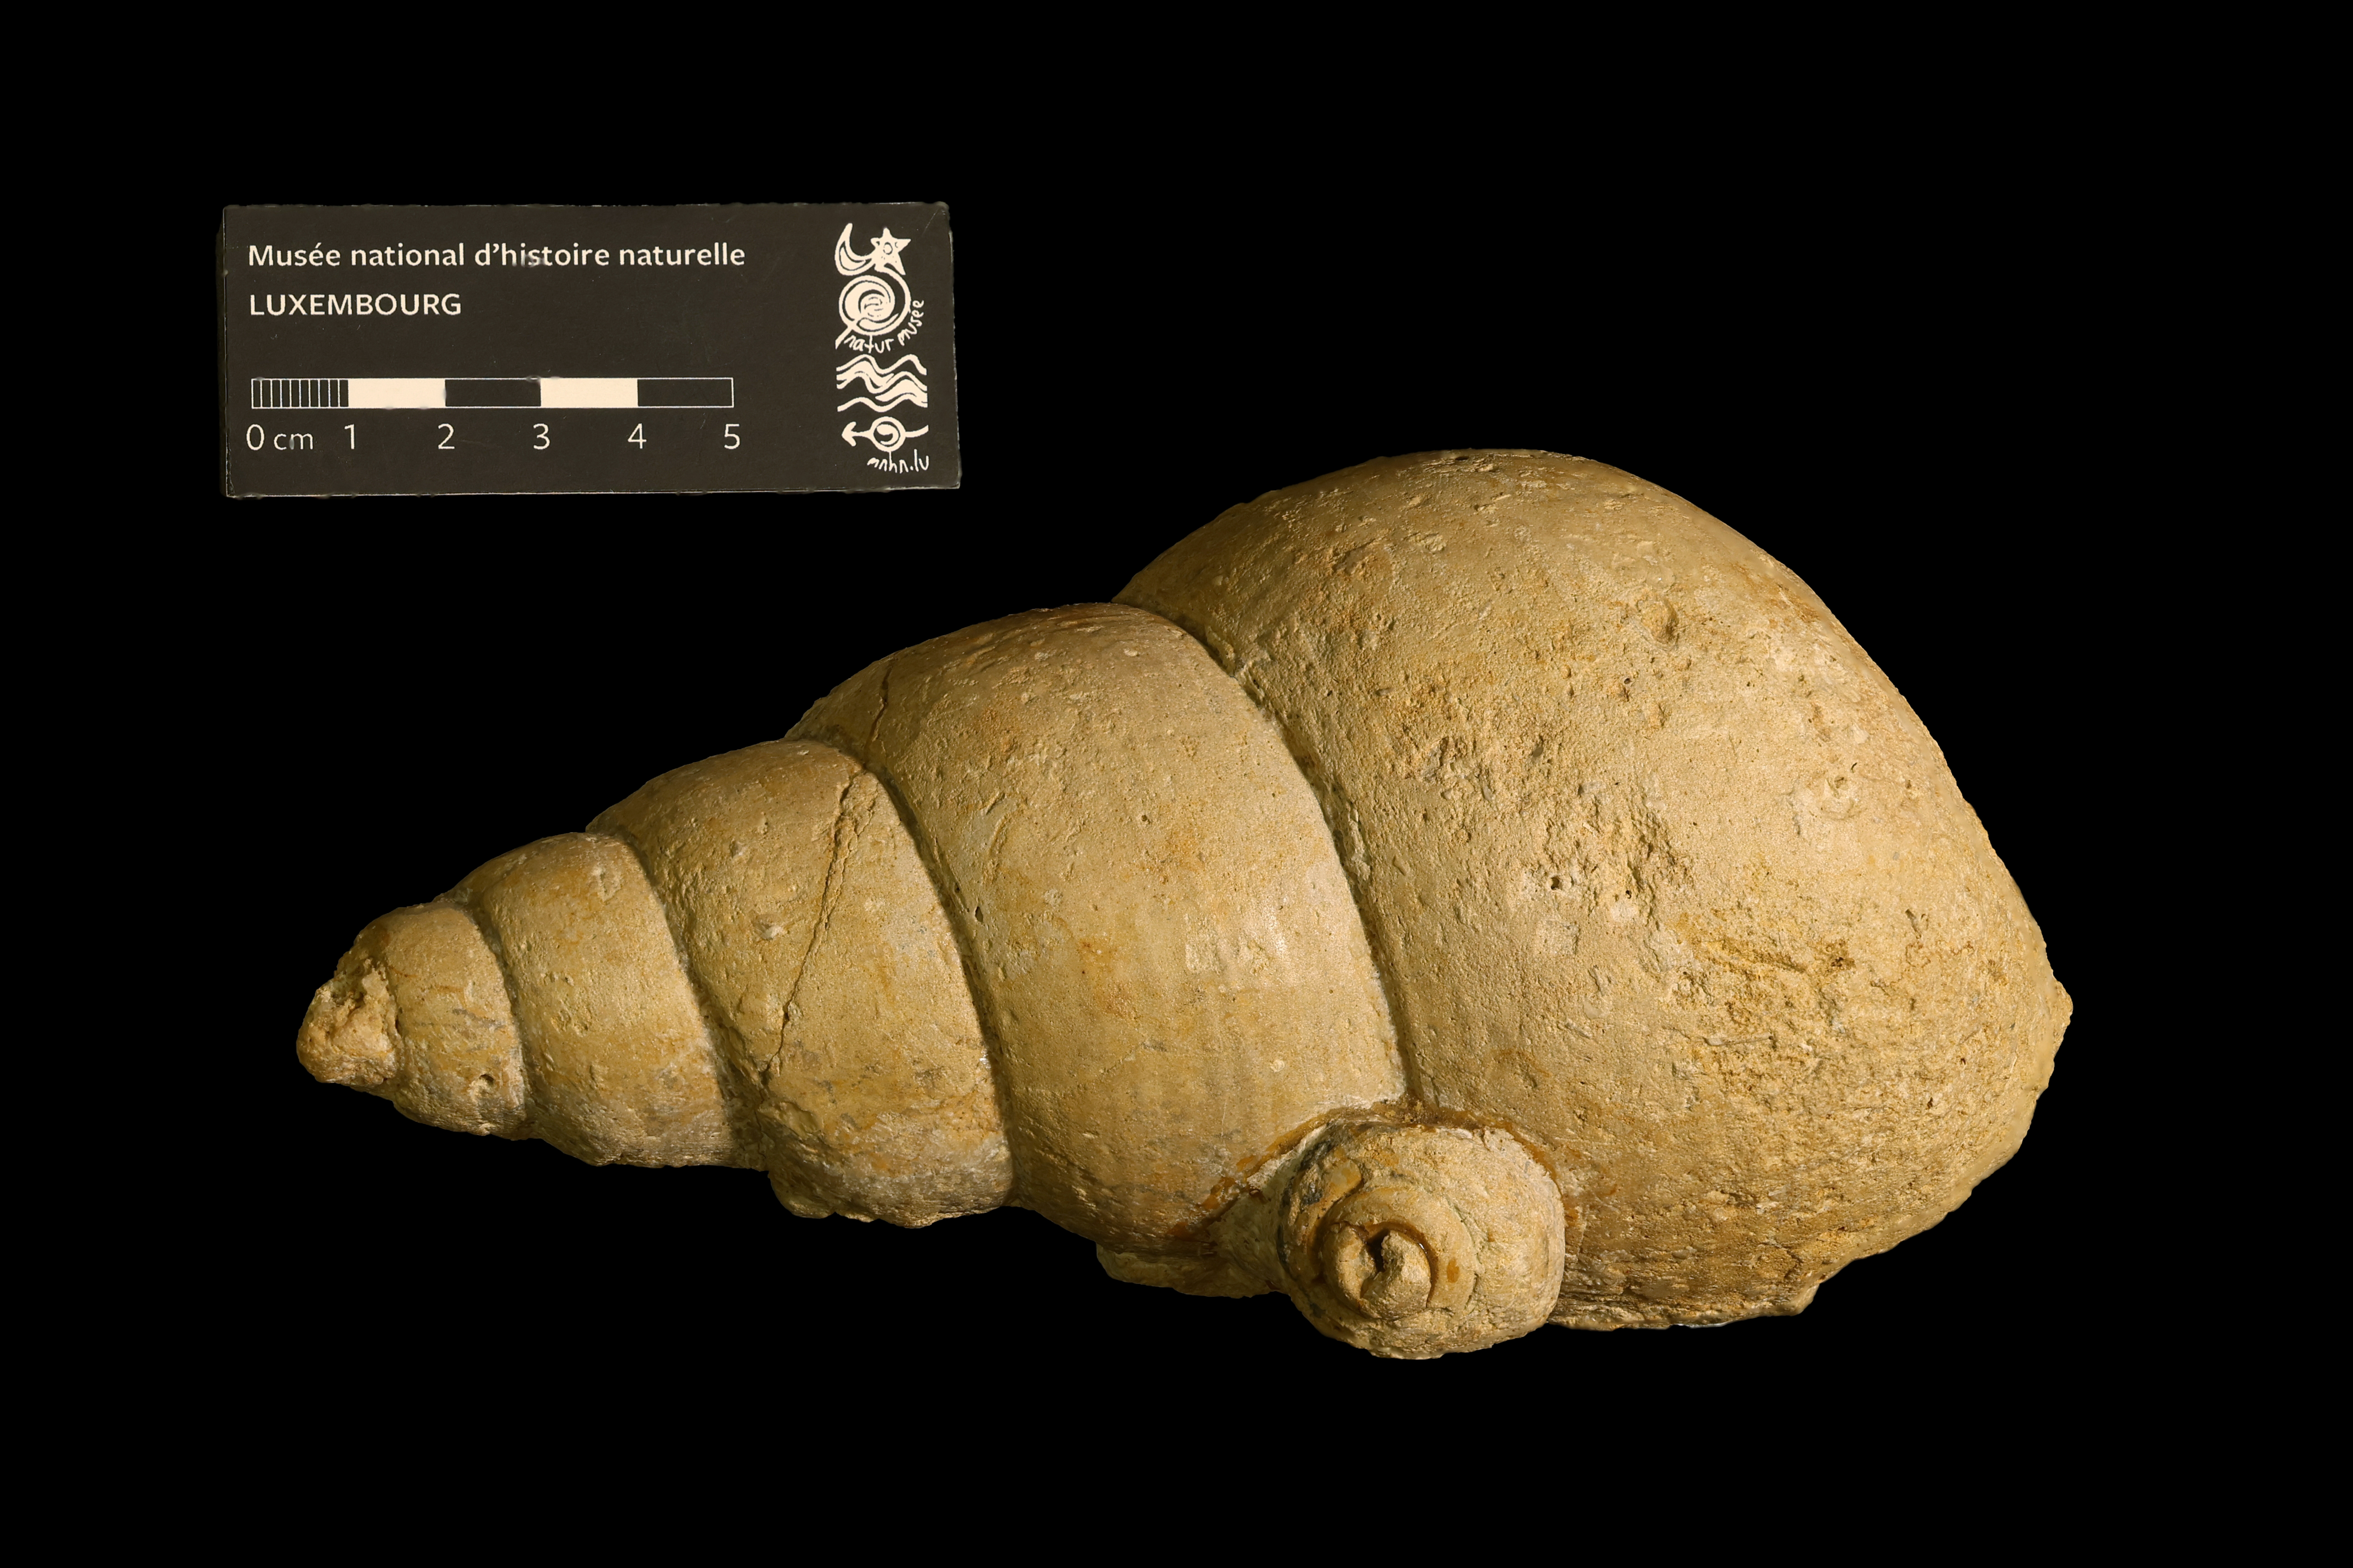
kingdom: Animalia
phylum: Mollusca
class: Gastropoda
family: Pseudomelaniidae
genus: Bourgetia
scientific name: Bourgetia saemanni
